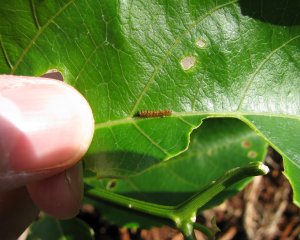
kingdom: Animalia
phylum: Arthropoda
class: Insecta
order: Lepidoptera
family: Nymphalidae
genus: Dione
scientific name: Dione vanillae
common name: Gulf Fritillary
